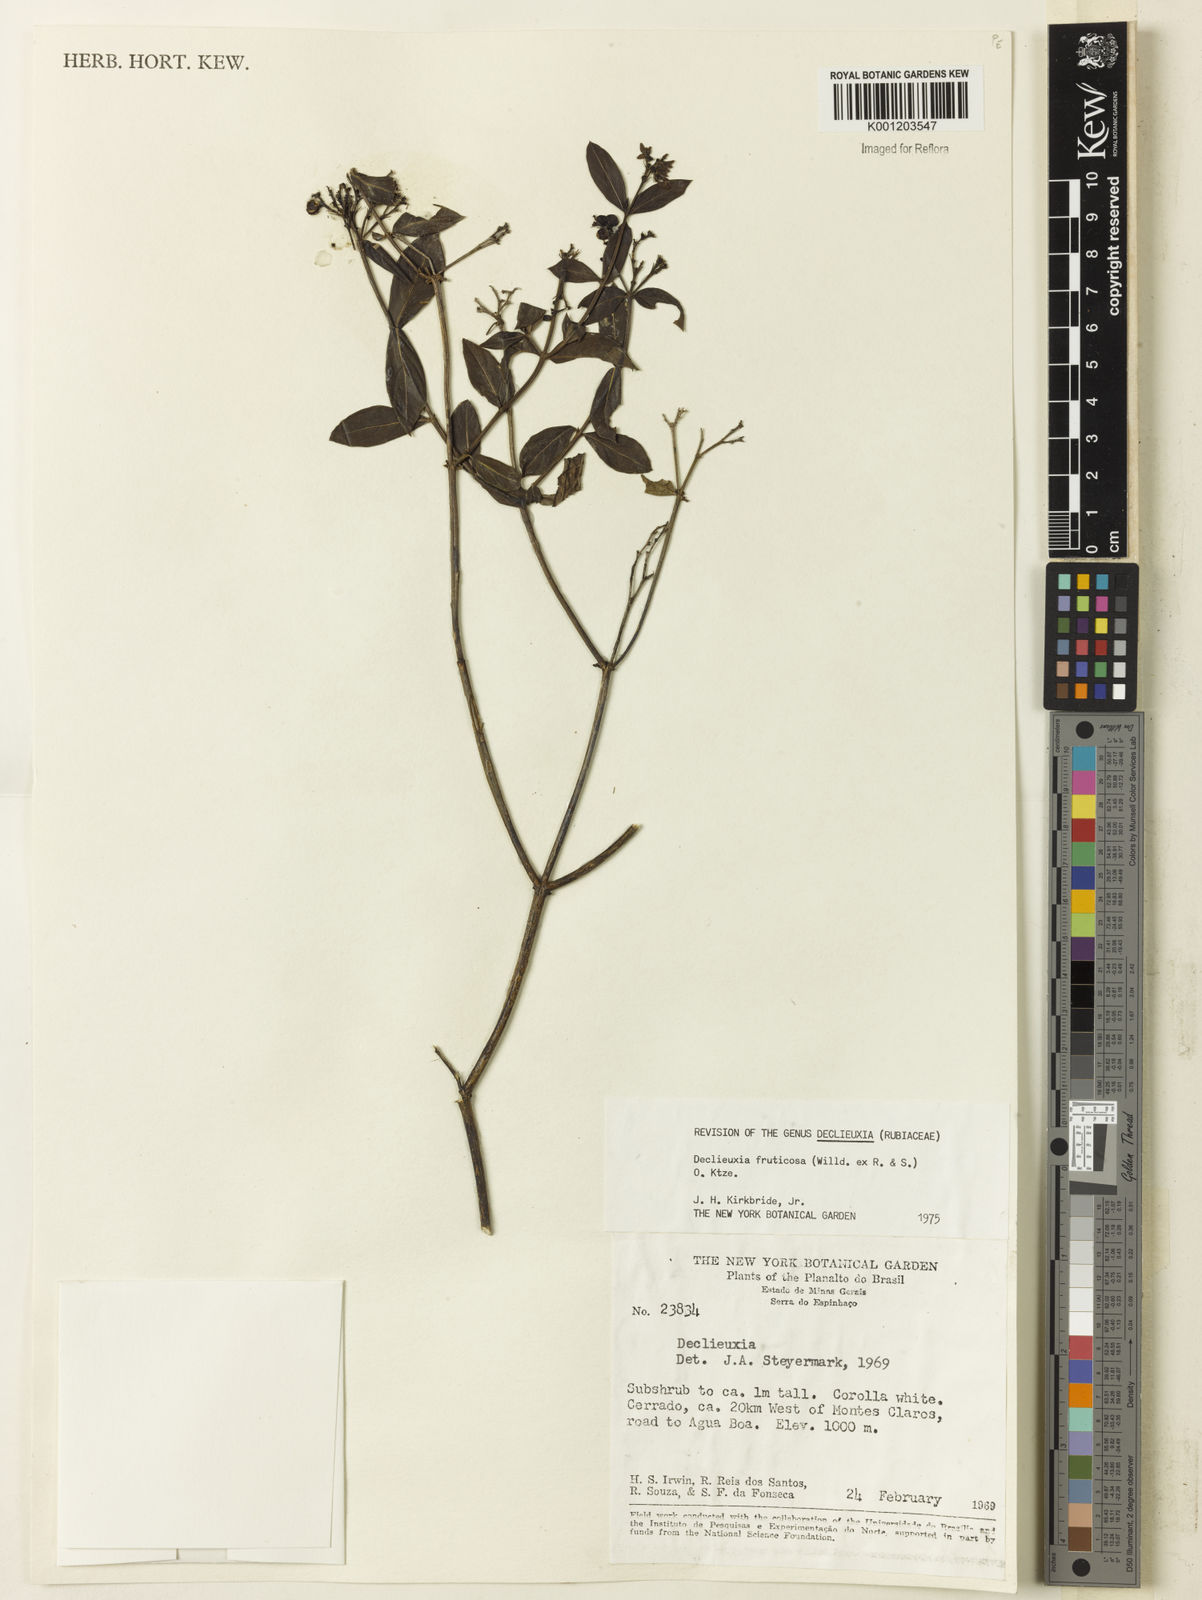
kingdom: Plantae
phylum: Tracheophyta
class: Magnoliopsida
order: Gentianales
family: Rubiaceae
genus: Declieuxia
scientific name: Declieuxia fruticosa
